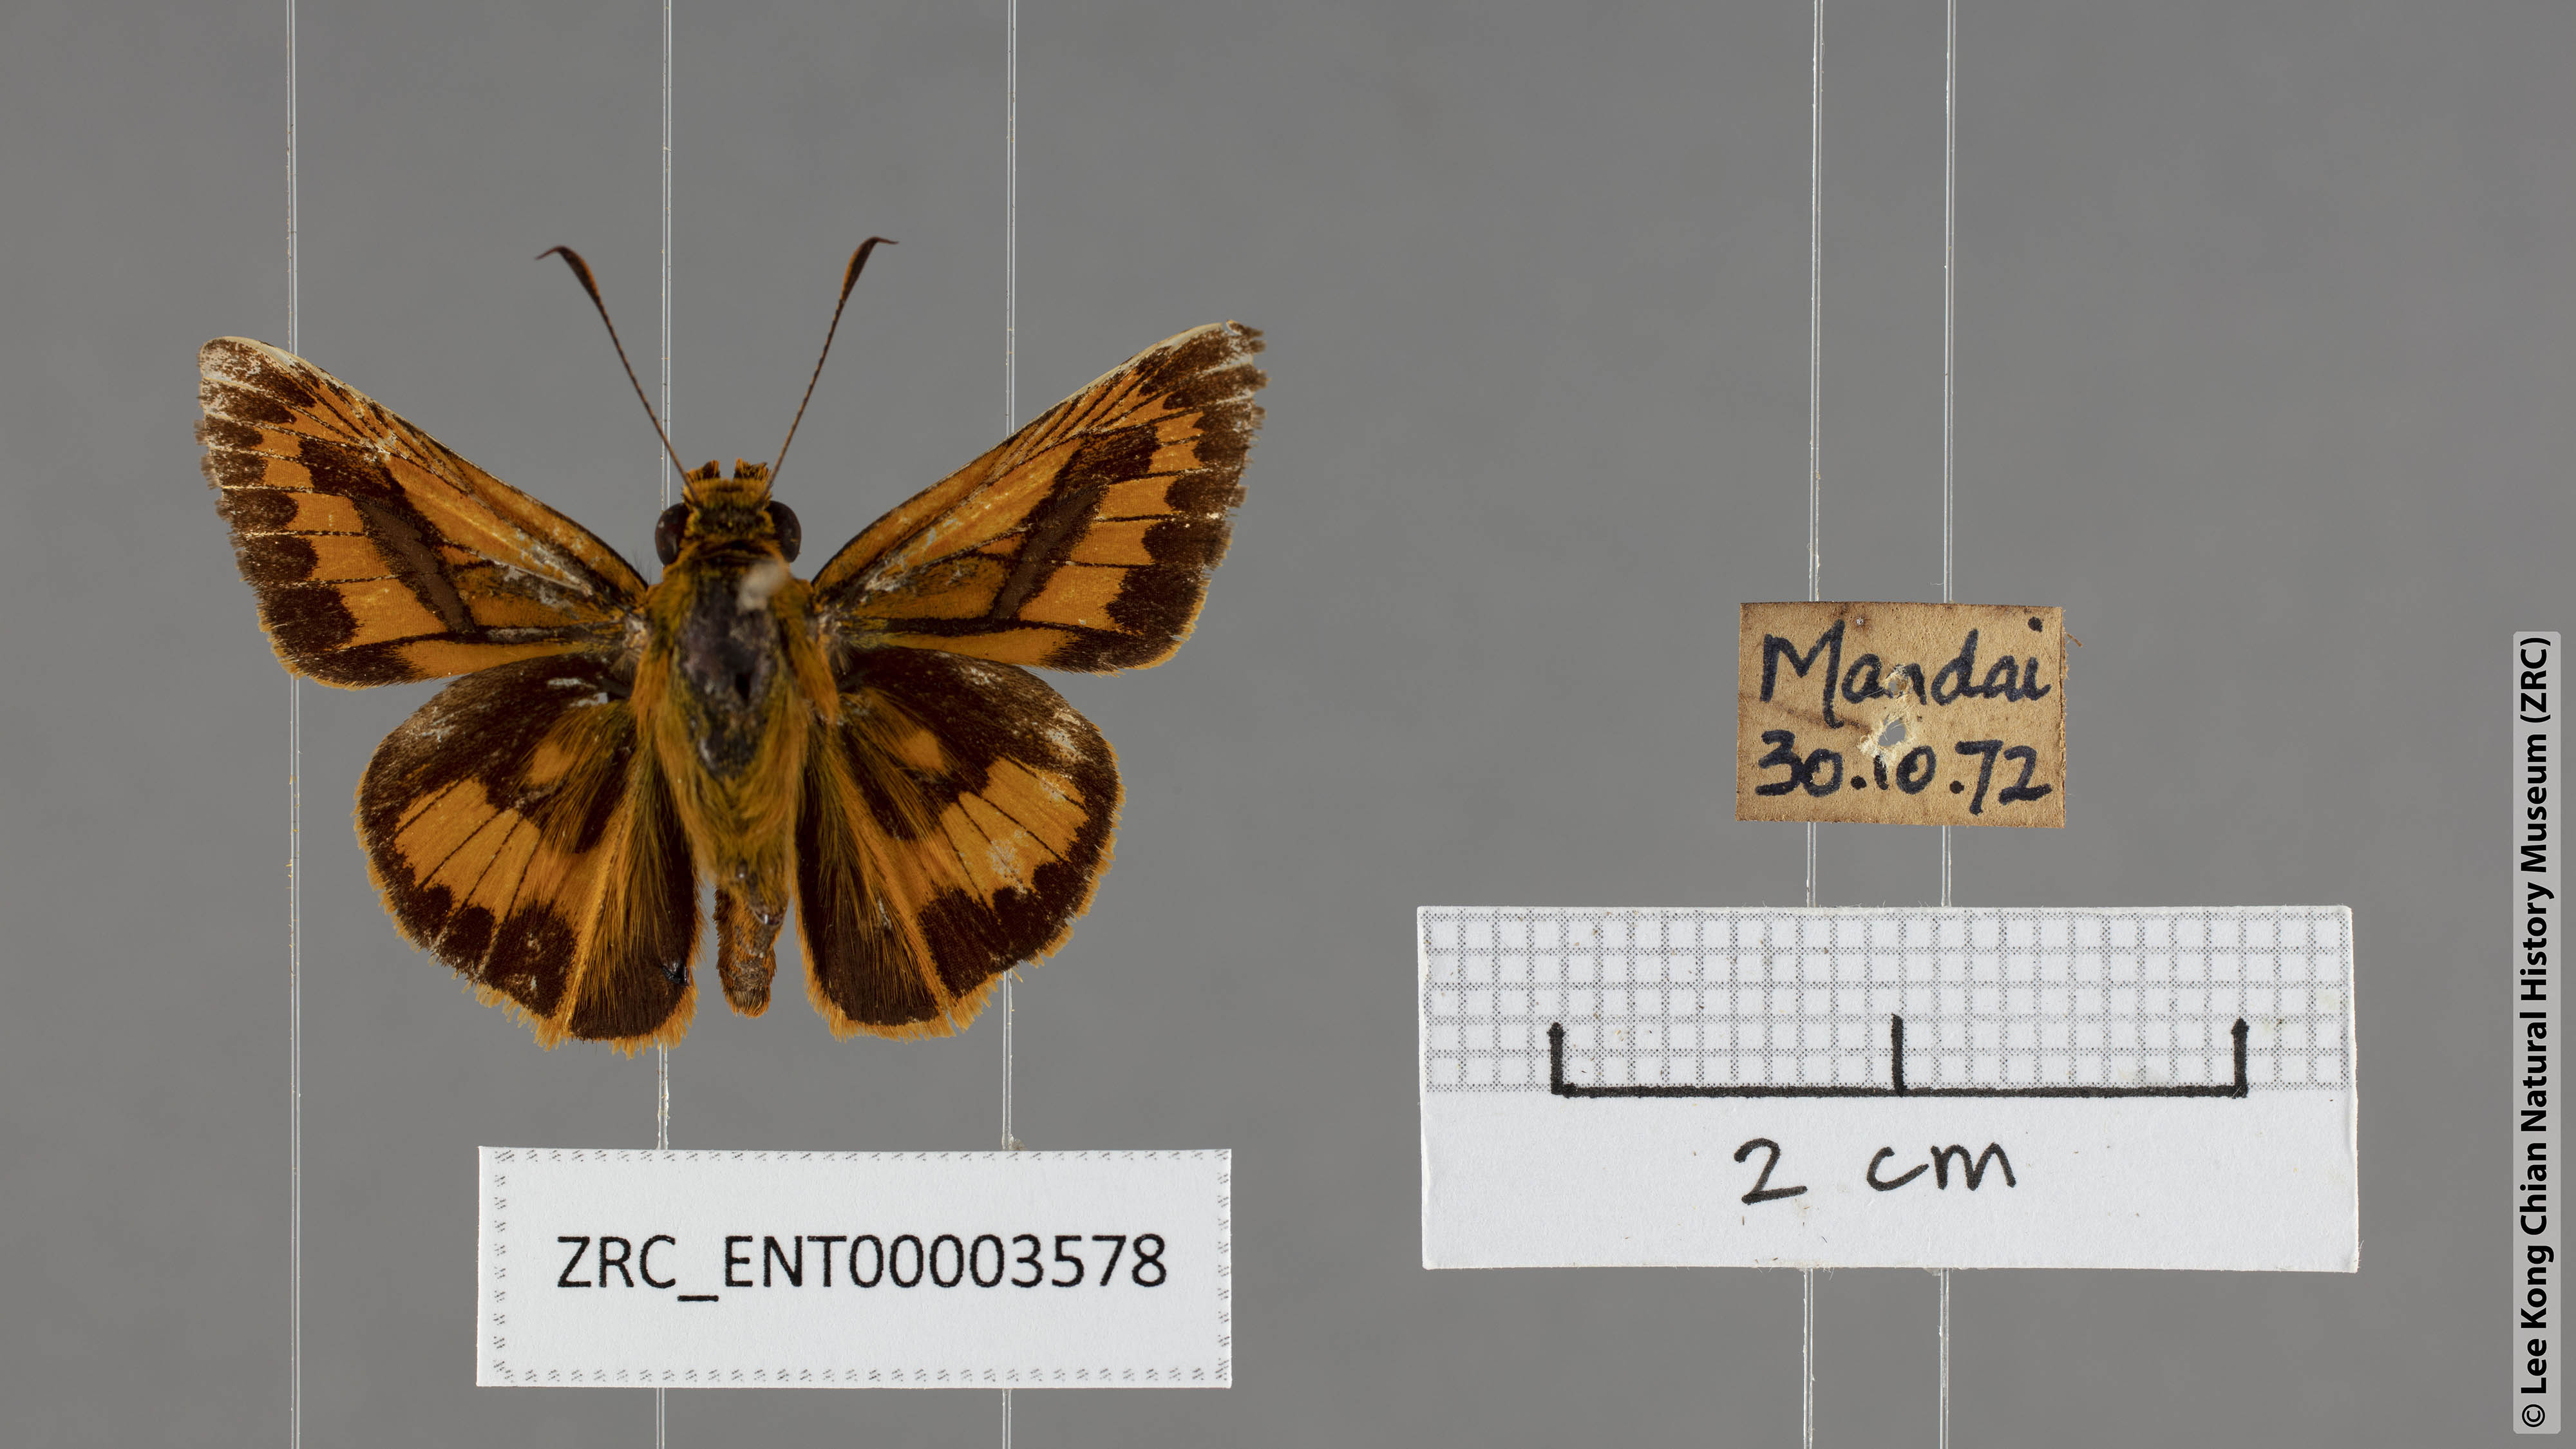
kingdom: Animalia
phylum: Arthropoda
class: Insecta
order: Lepidoptera
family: Hesperiidae
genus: Telicota
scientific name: Telicota augias
